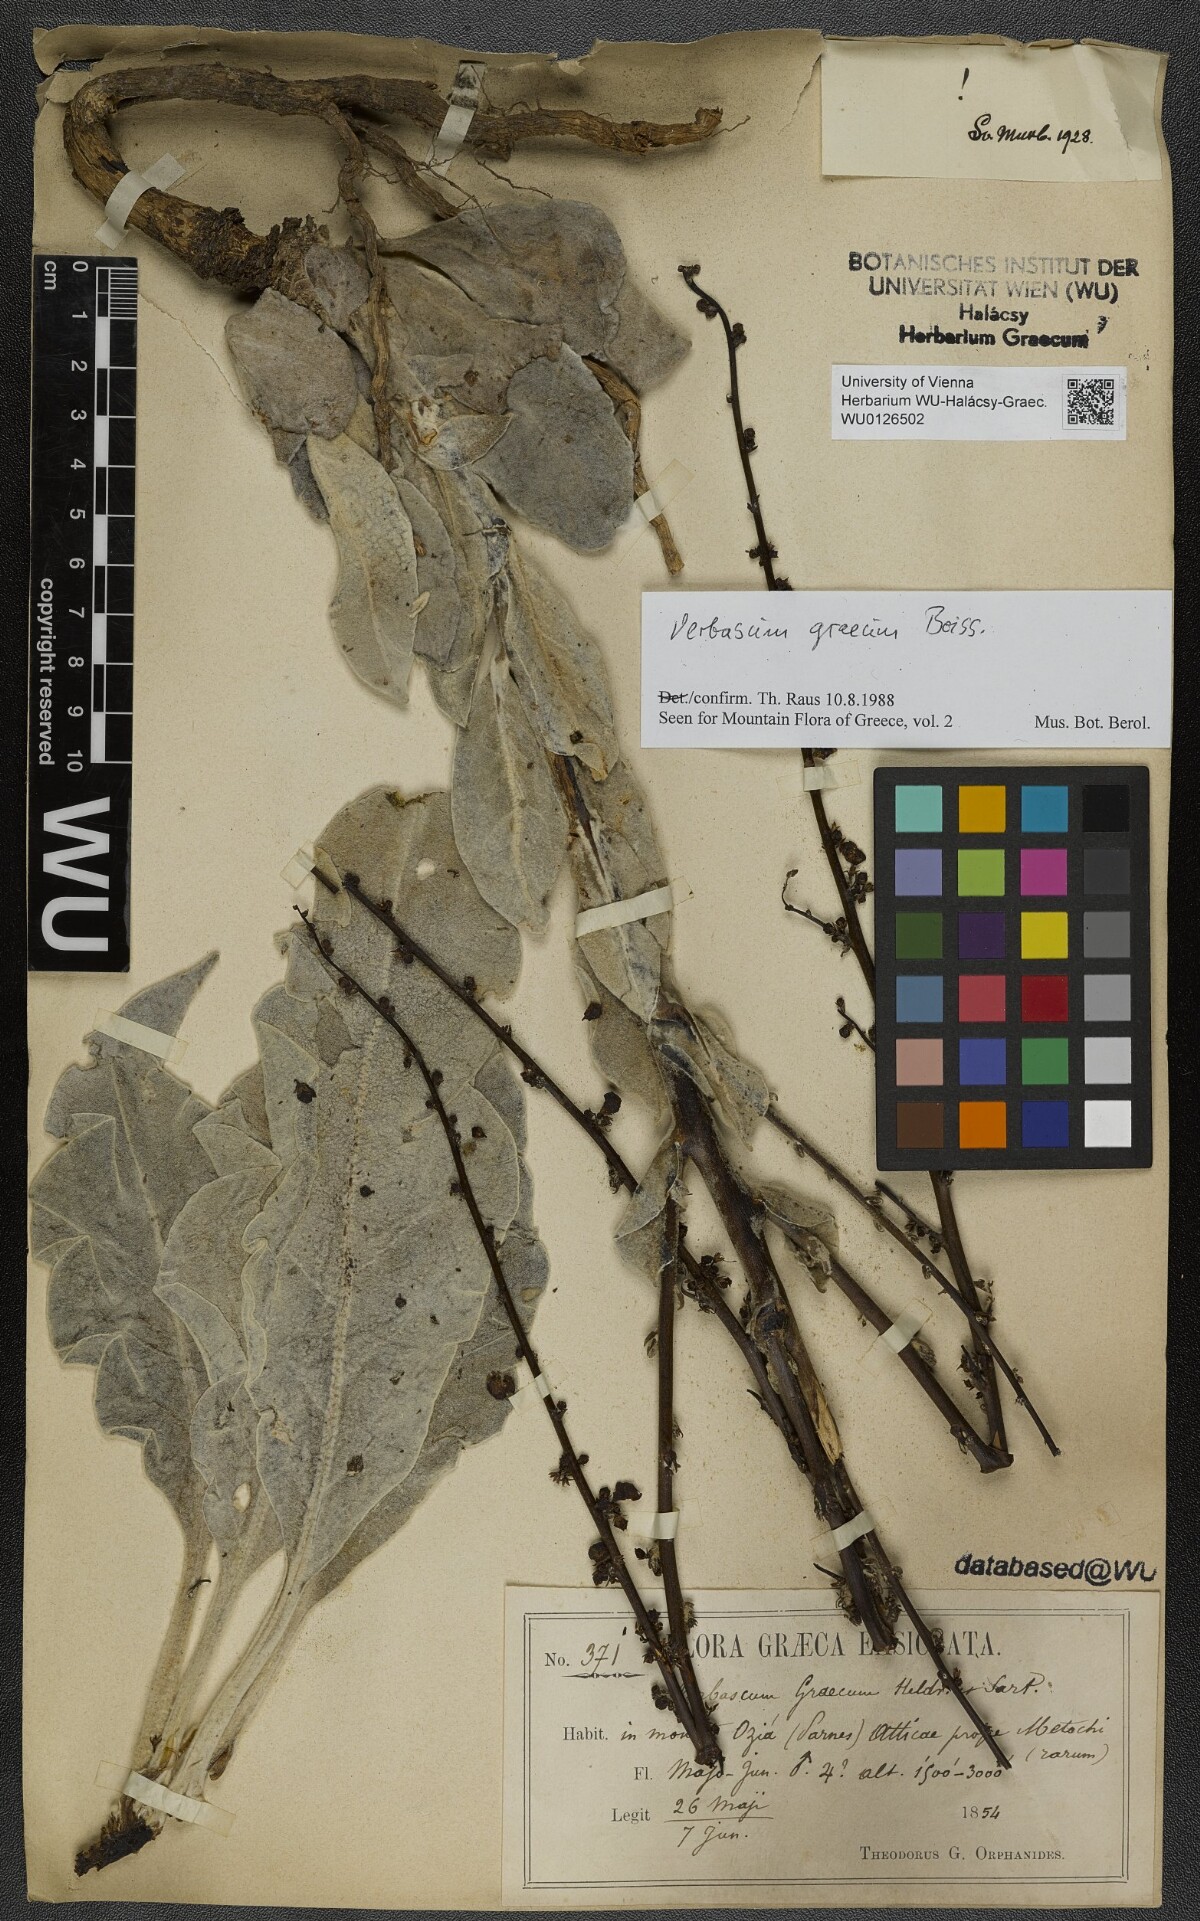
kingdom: Plantae
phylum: Tracheophyta
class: Magnoliopsida
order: Lamiales
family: Scrophulariaceae
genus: Verbascum
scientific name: Verbascum graecum
